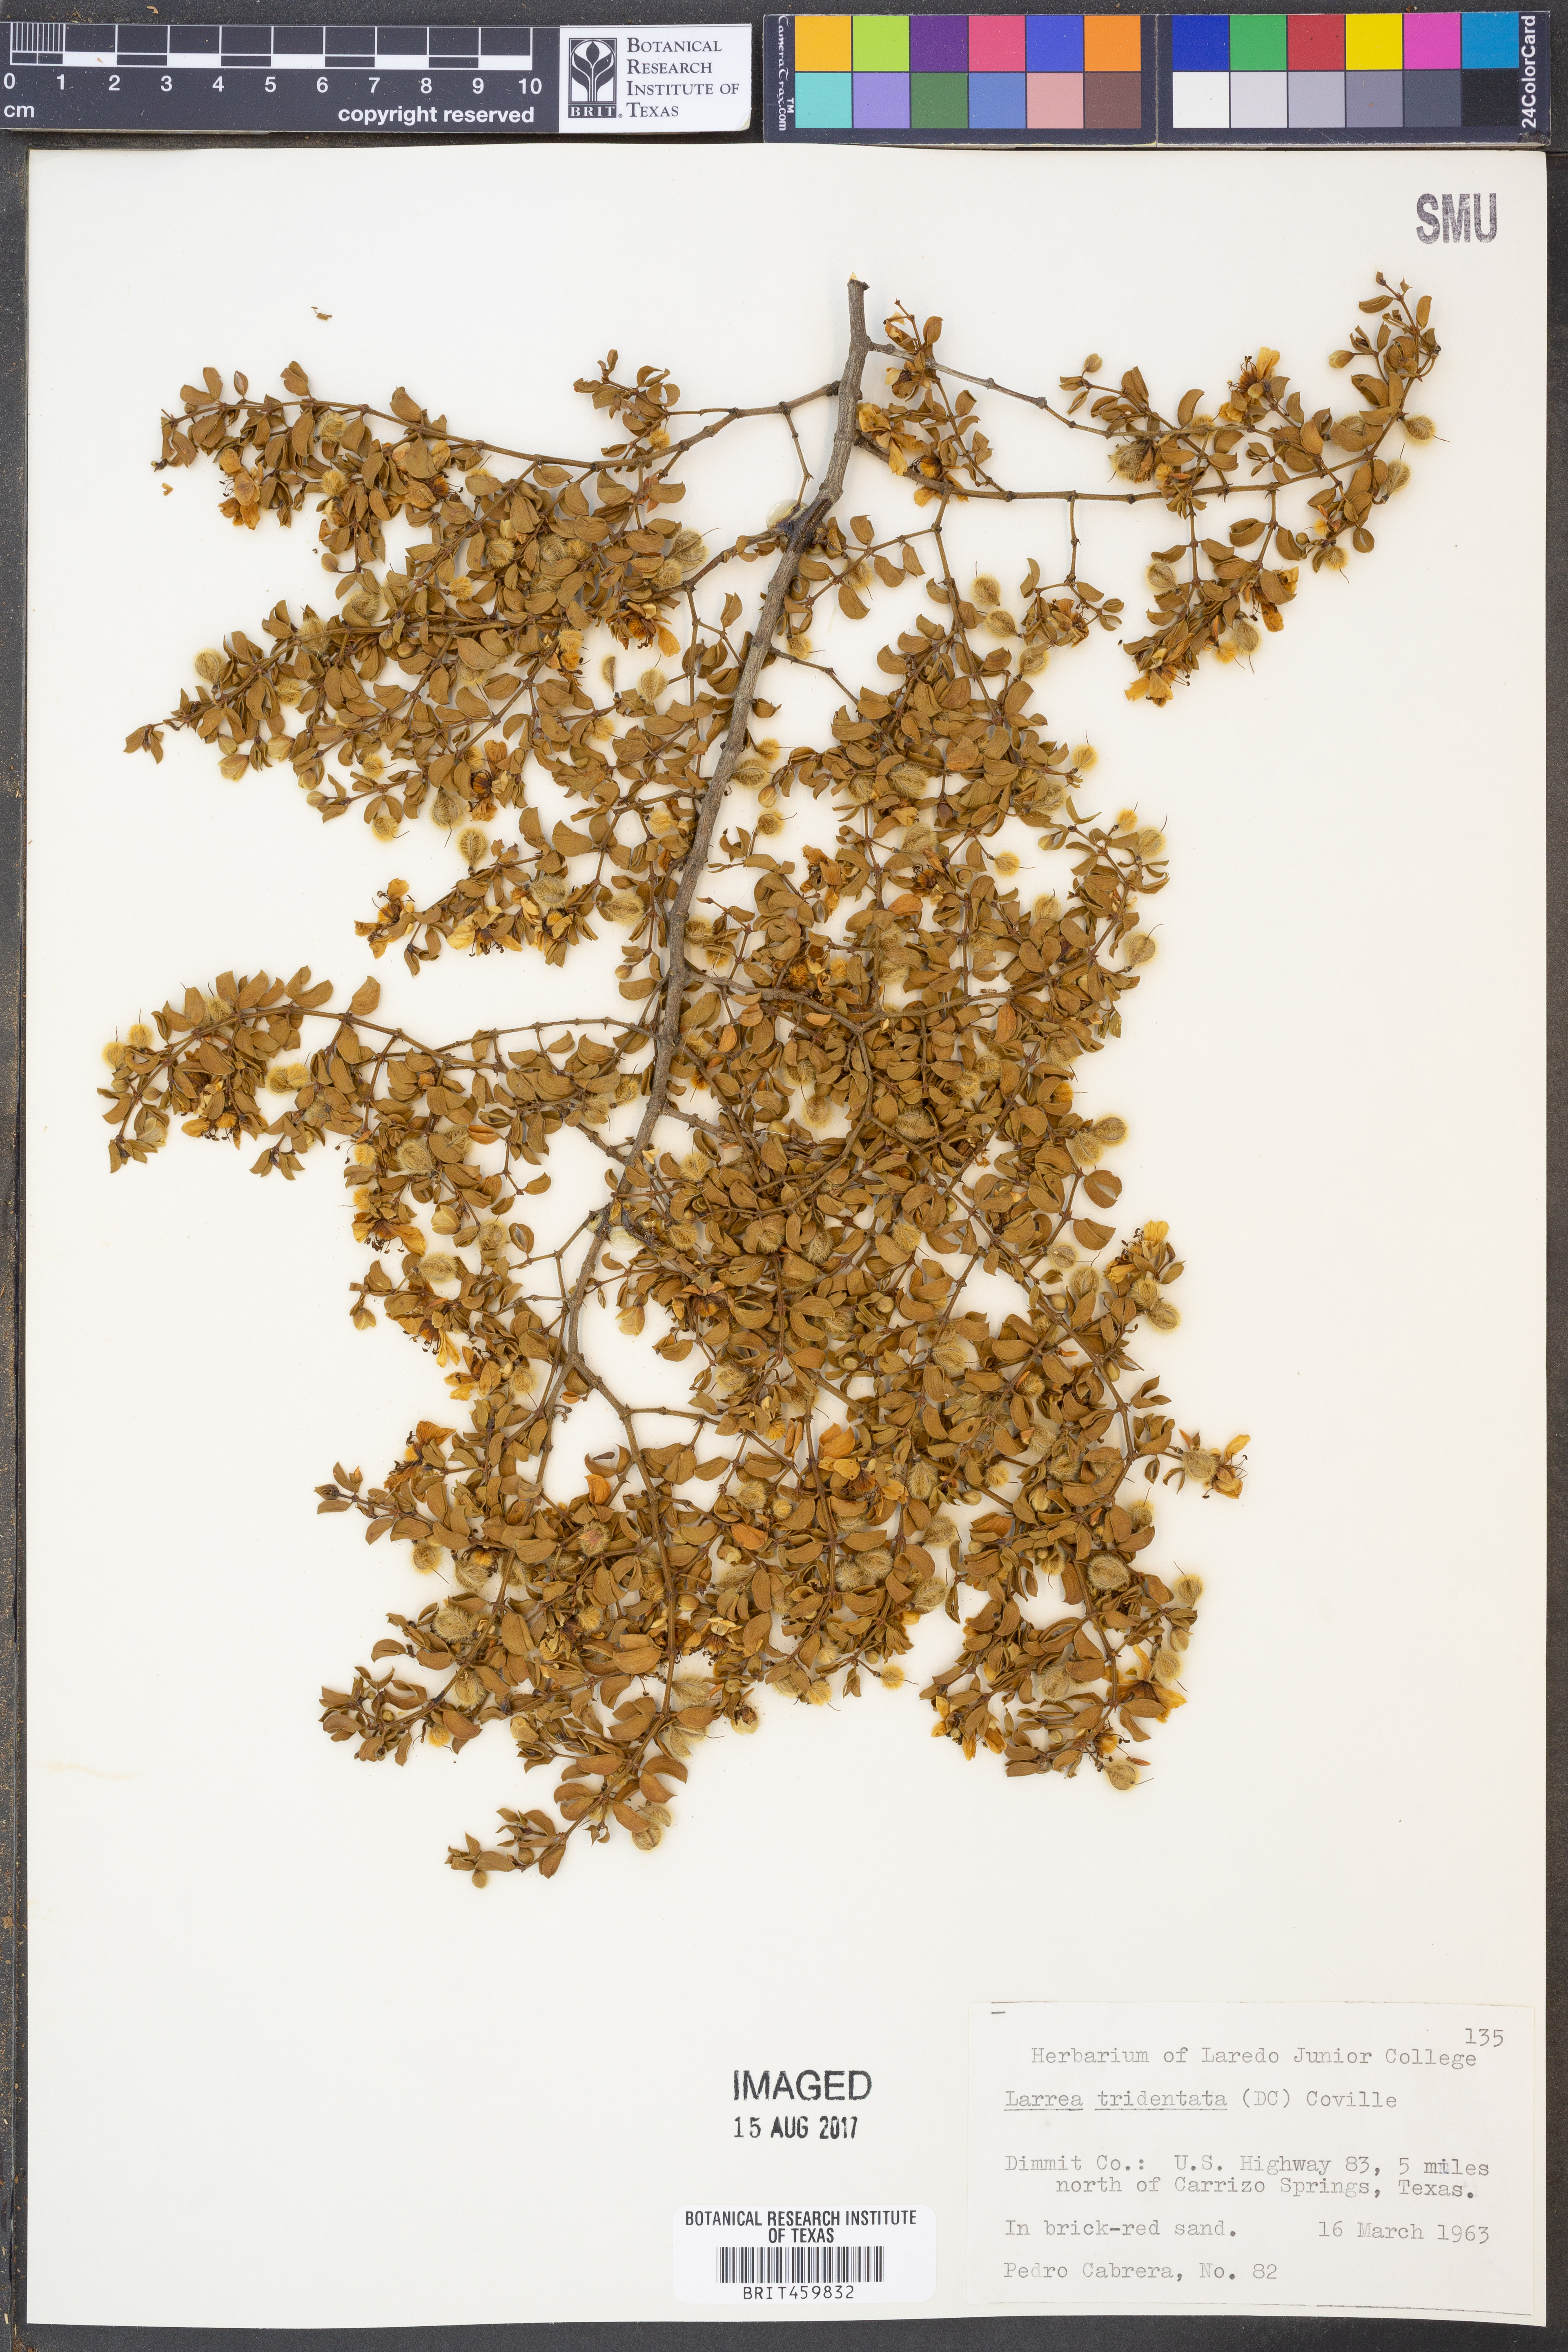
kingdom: Plantae
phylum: Tracheophyta
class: Magnoliopsida
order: Zygophyllales
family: Zygophyllaceae
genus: Larrea
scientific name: Larrea tridentata
